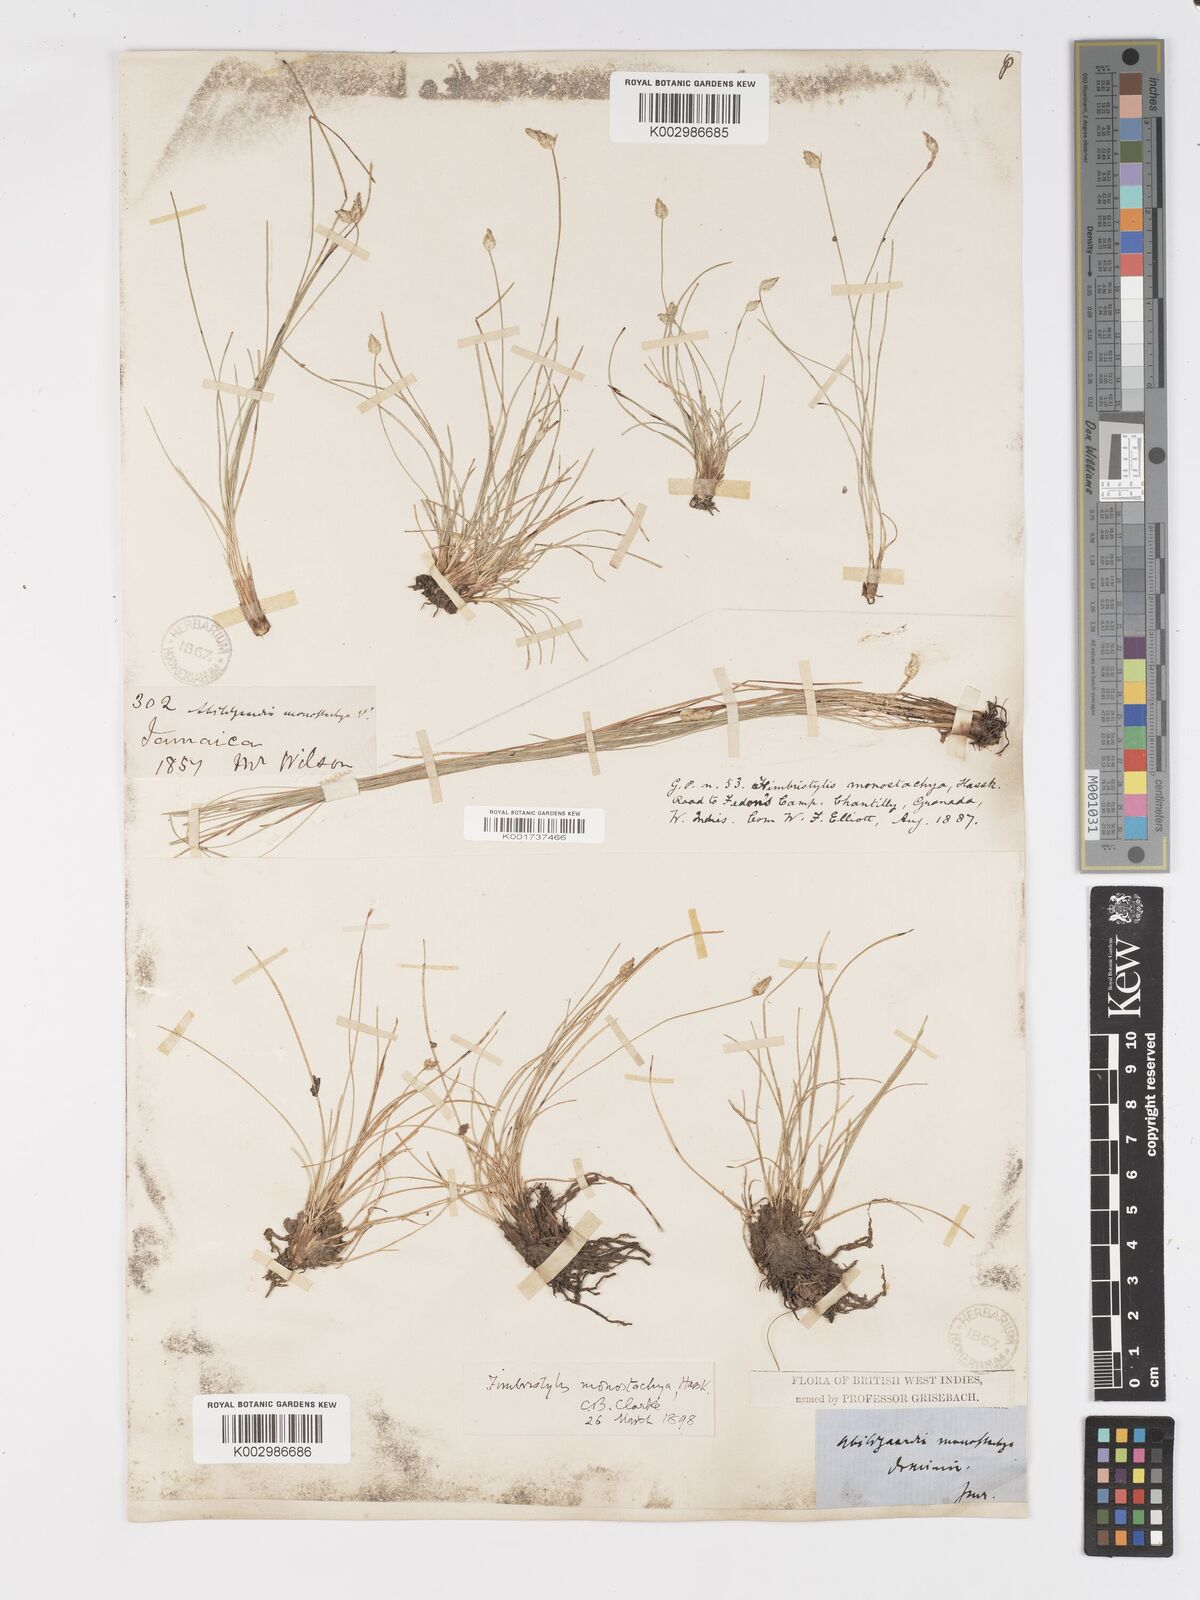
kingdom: Plantae
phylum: Tracheophyta
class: Liliopsida
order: Poales
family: Cyperaceae
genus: Abildgaardia
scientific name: Abildgaardia ovata
